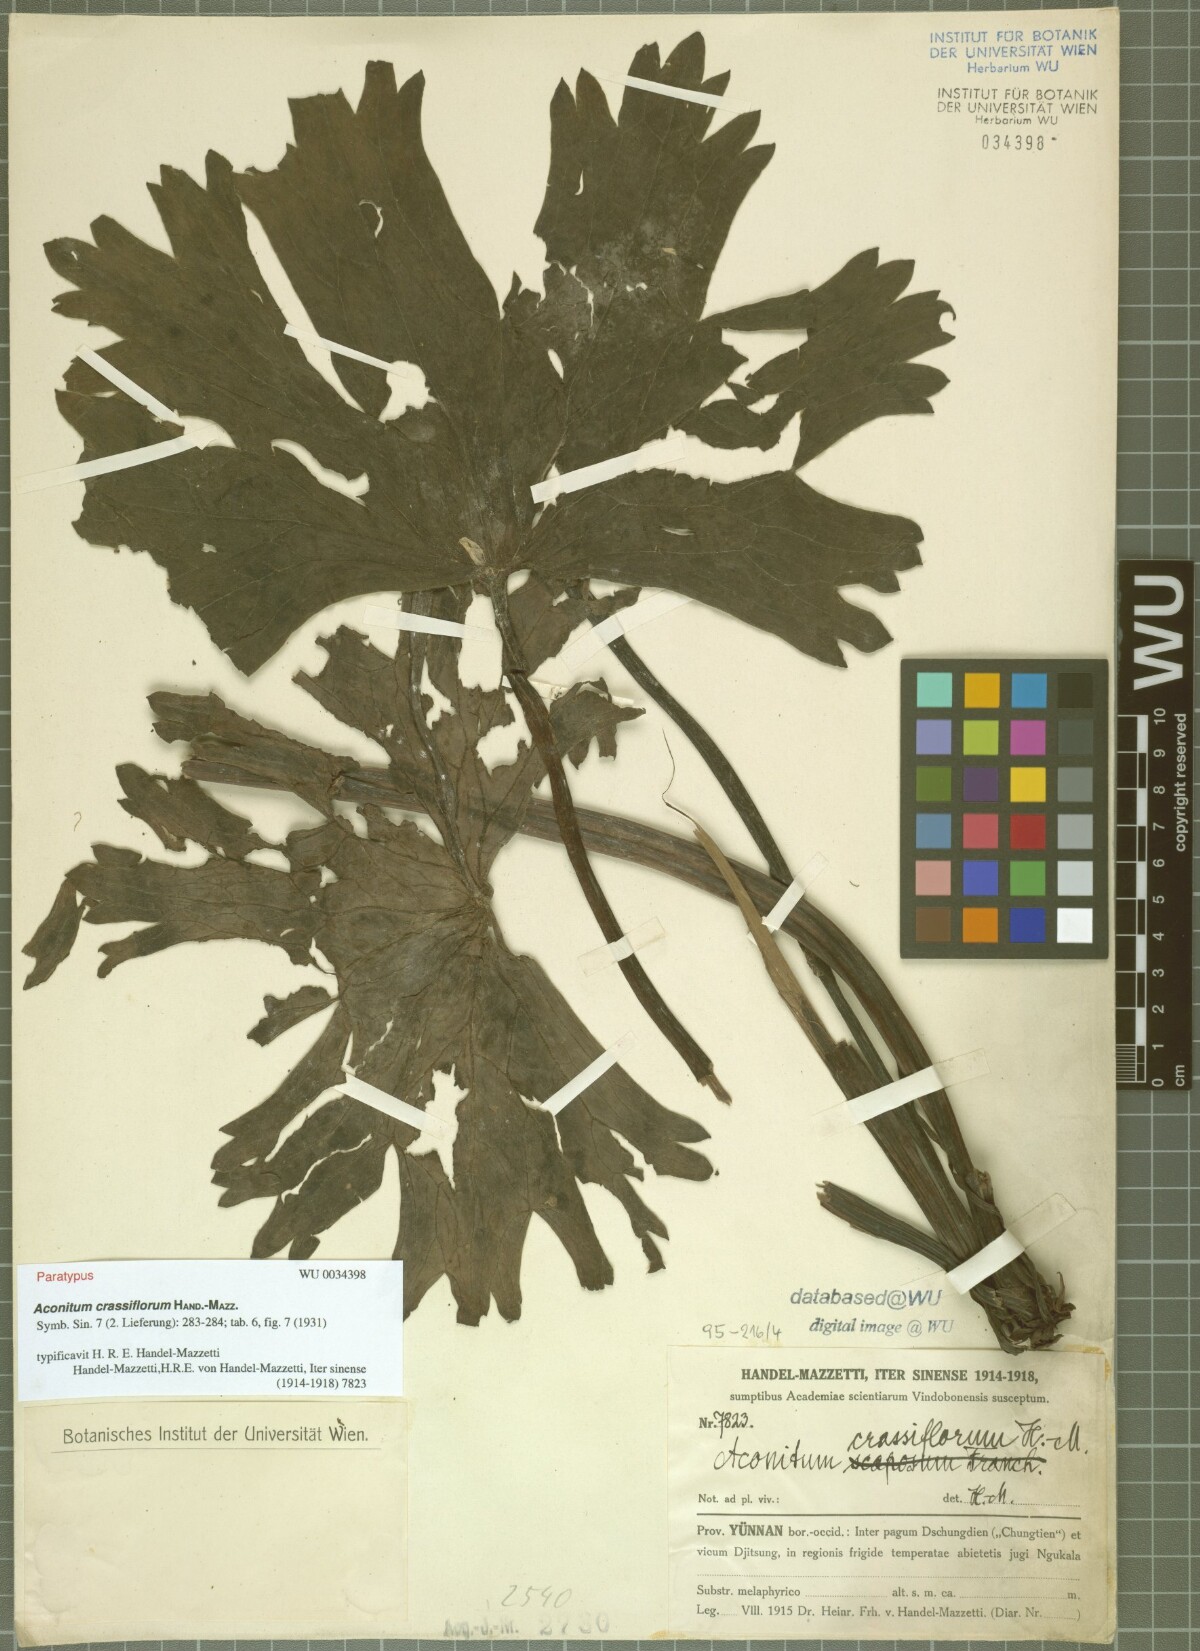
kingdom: Plantae
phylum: Tracheophyta
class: Magnoliopsida
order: Ranunculales
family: Ranunculaceae
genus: Aconitum
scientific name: Aconitum crassiflorum
